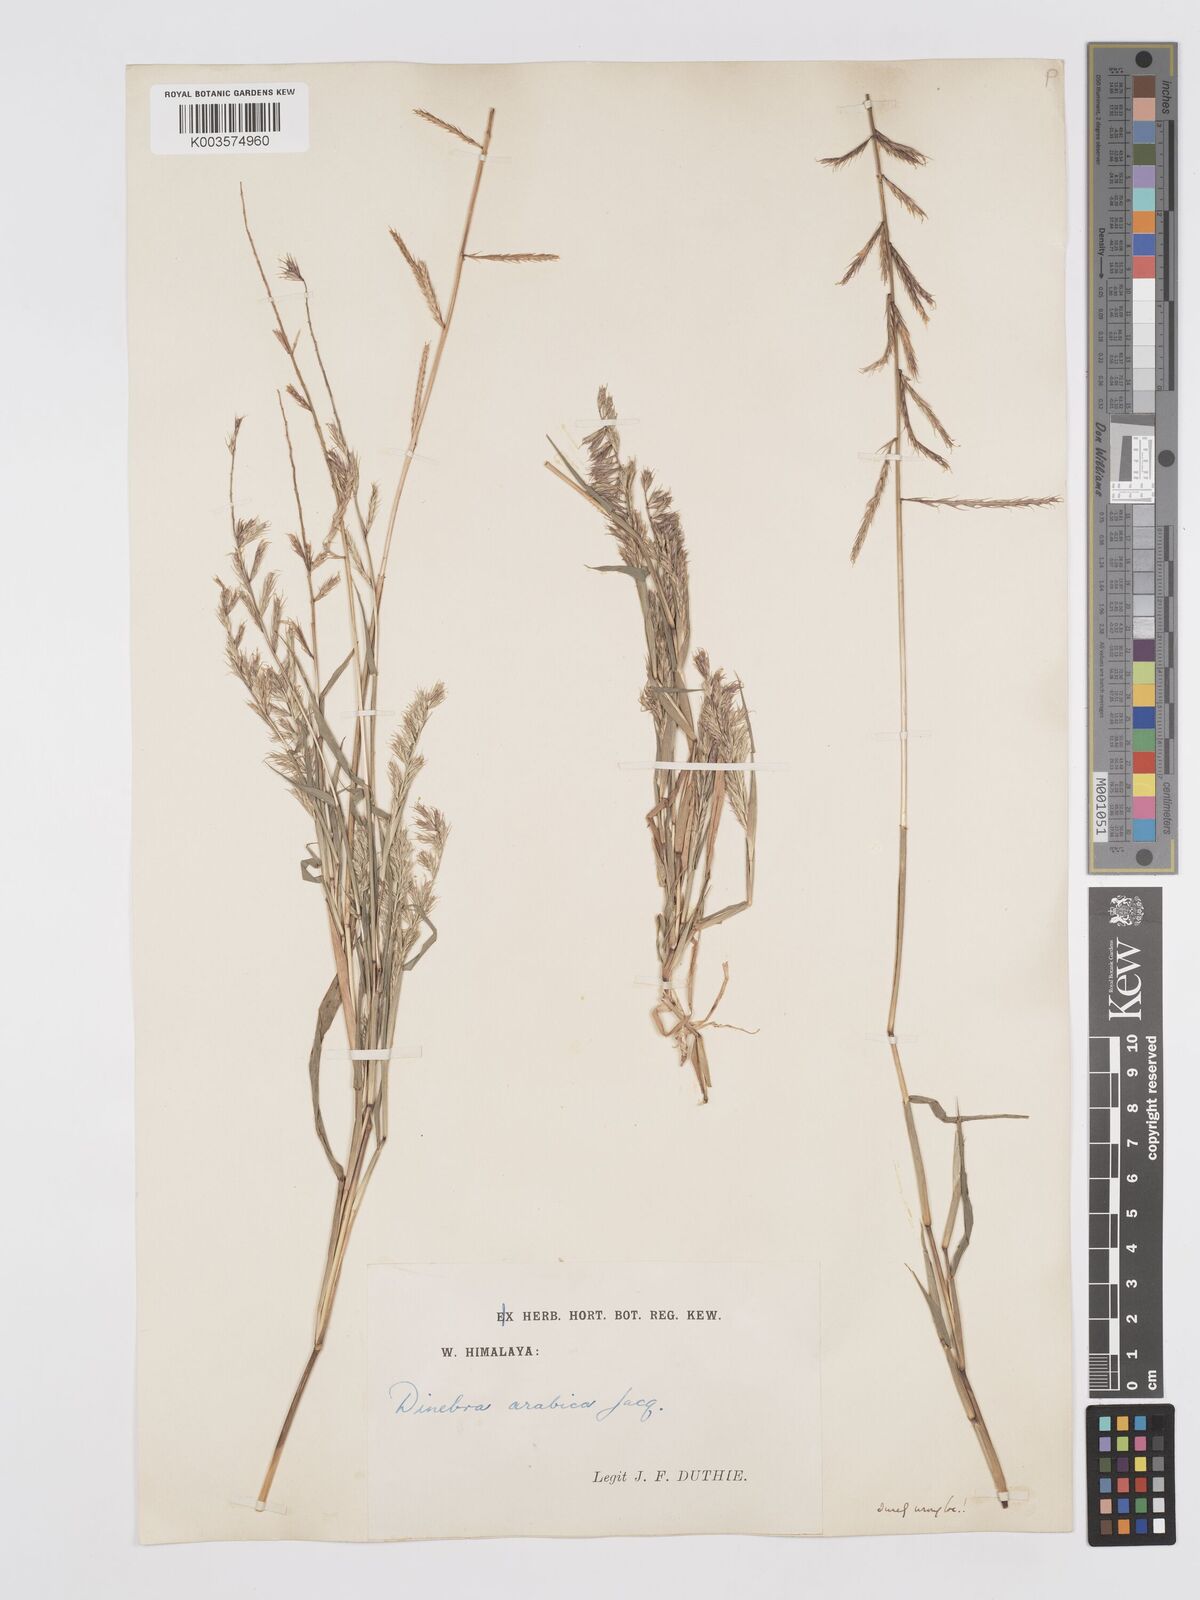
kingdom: Plantae
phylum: Tracheophyta
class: Liliopsida
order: Poales
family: Poaceae
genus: Dinebra
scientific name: Dinebra retroflexa
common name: Viper grass
